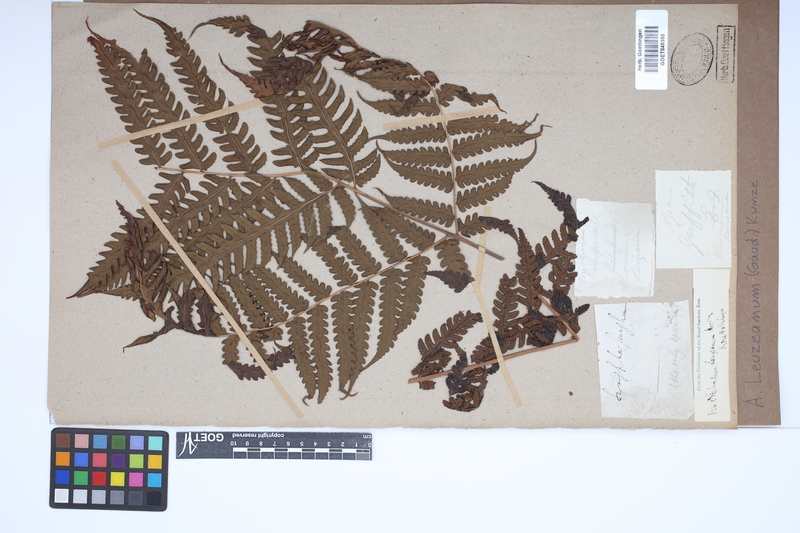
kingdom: Plantae
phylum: Tracheophyta
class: Polypodiopsida
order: Polypodiales
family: Dryopteridaceae
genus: Pleocnemia
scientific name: Pleocnemia leuzeana
